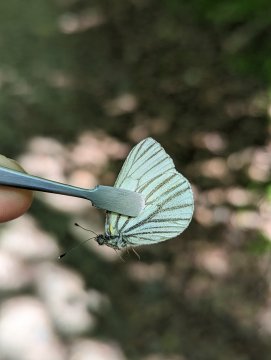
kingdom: Animalia
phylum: Arthropoda
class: Insecta
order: Lepidoptera
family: Pieridae
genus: Pieris
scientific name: Pieris oleracea
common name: Mustard White
